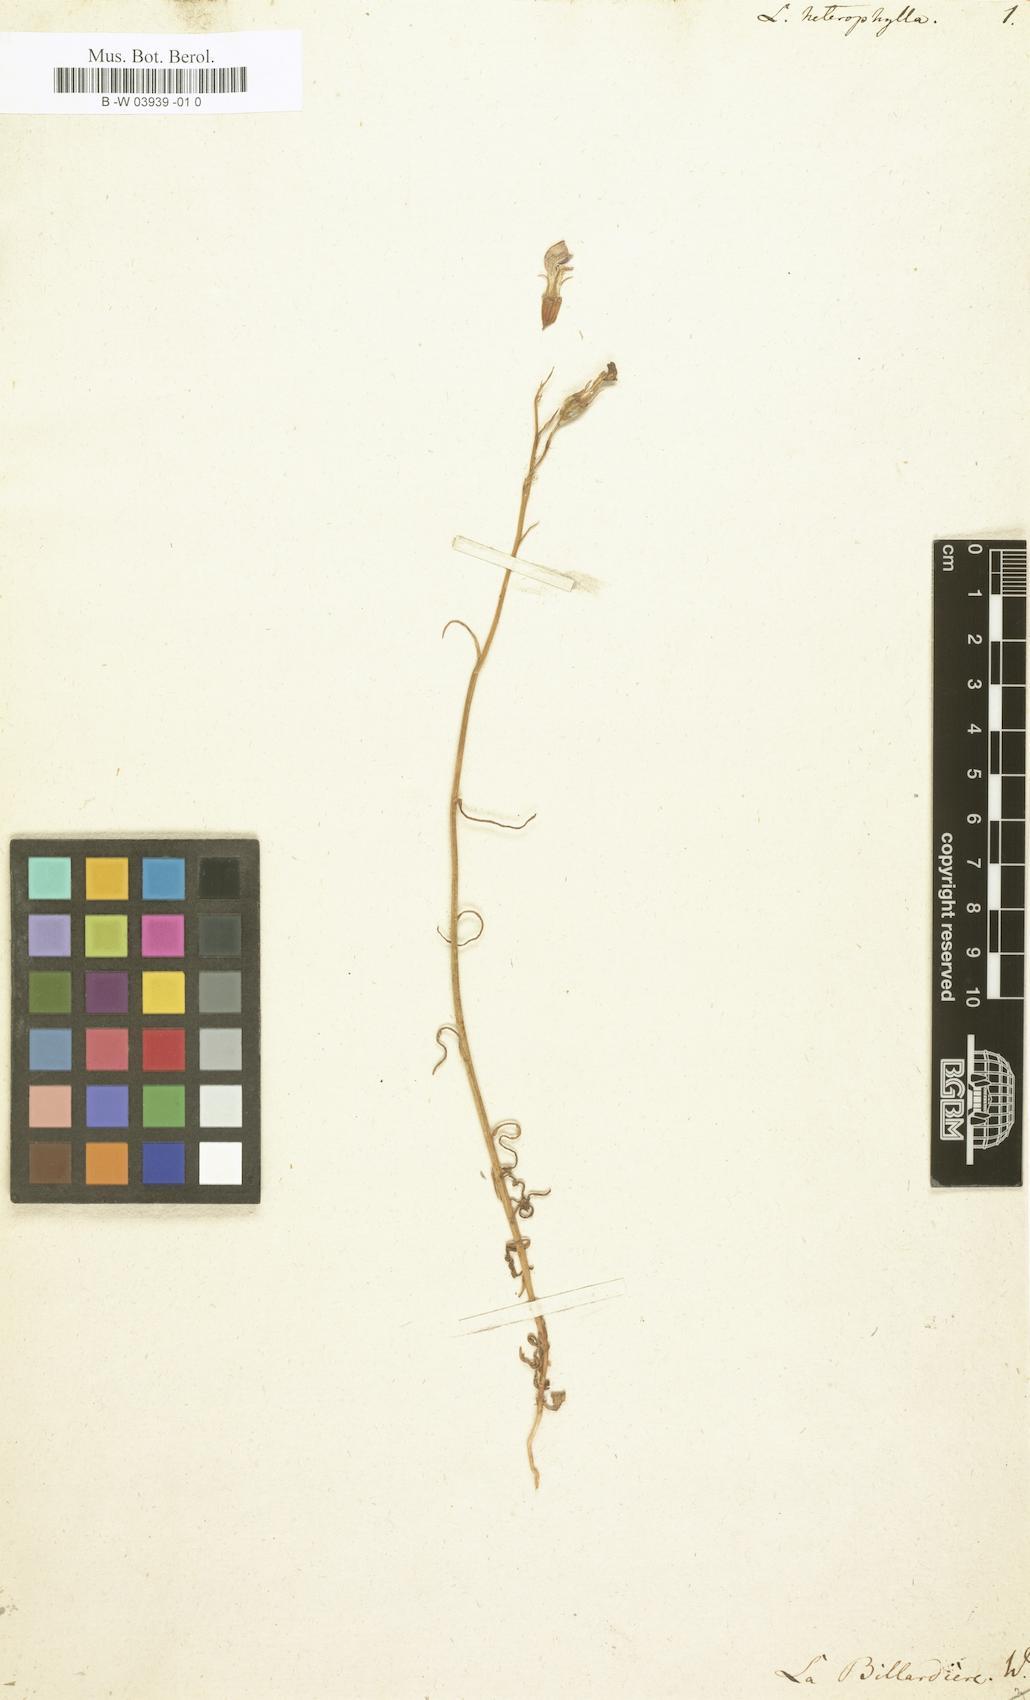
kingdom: Plantae
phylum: Tracheophyta
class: Magnoliopsida
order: Asterales
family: Campanulaceae
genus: Lobelia
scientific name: Lobelia heterophylla
